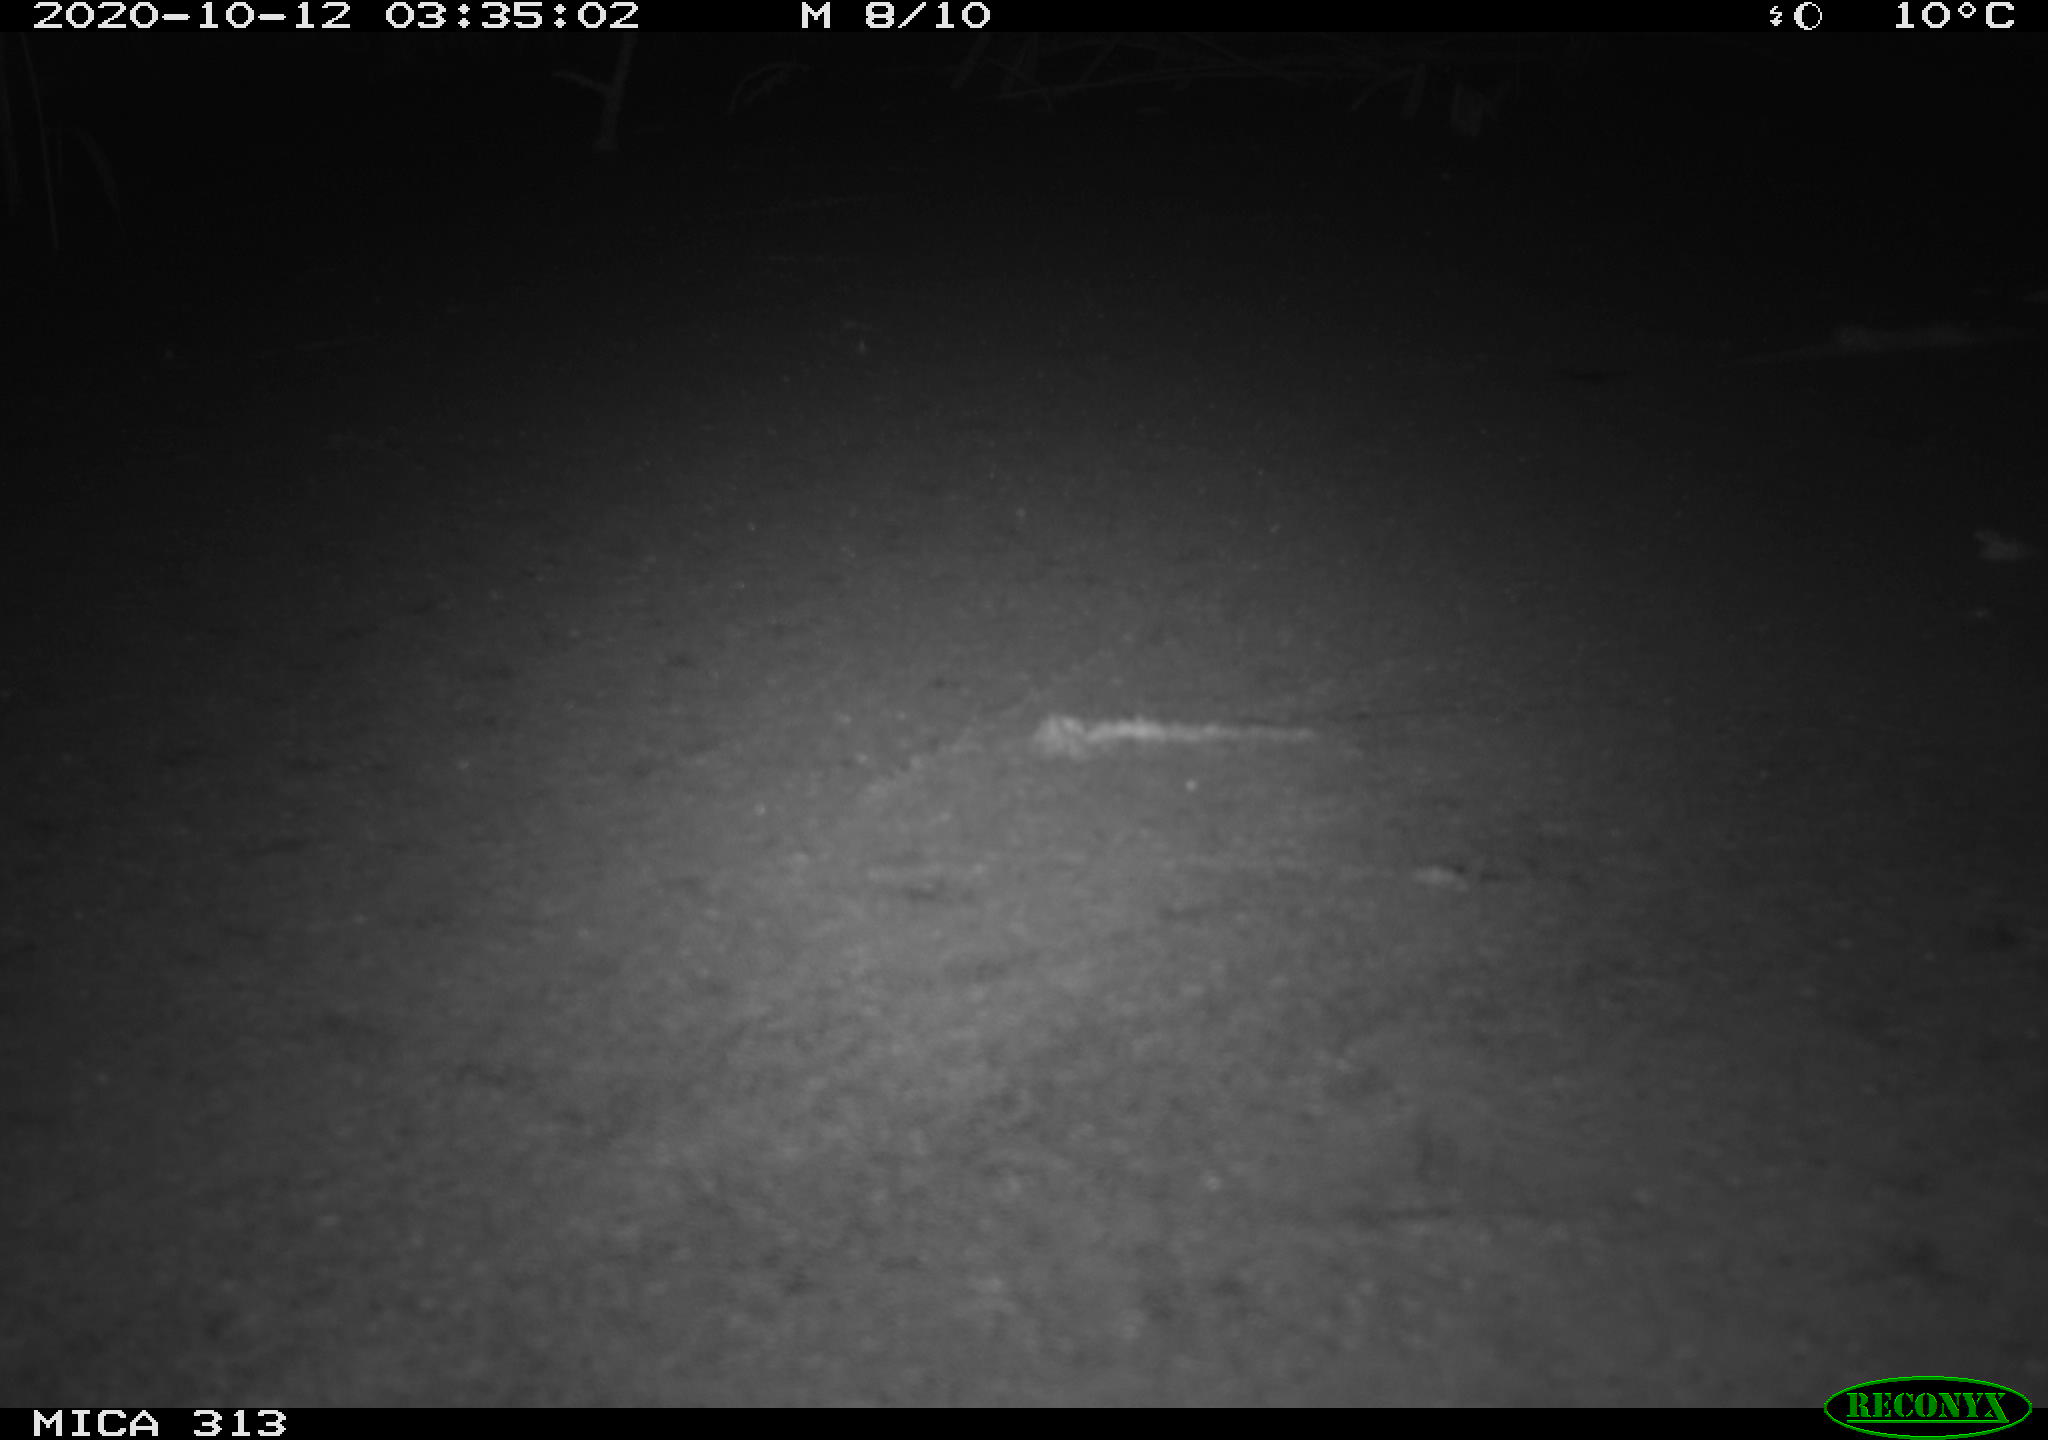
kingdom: Animalia
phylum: Chordata
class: Mammalia
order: Rodentia
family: Muridae
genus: Rattus
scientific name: Rattus norvegicus
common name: Brown rat
